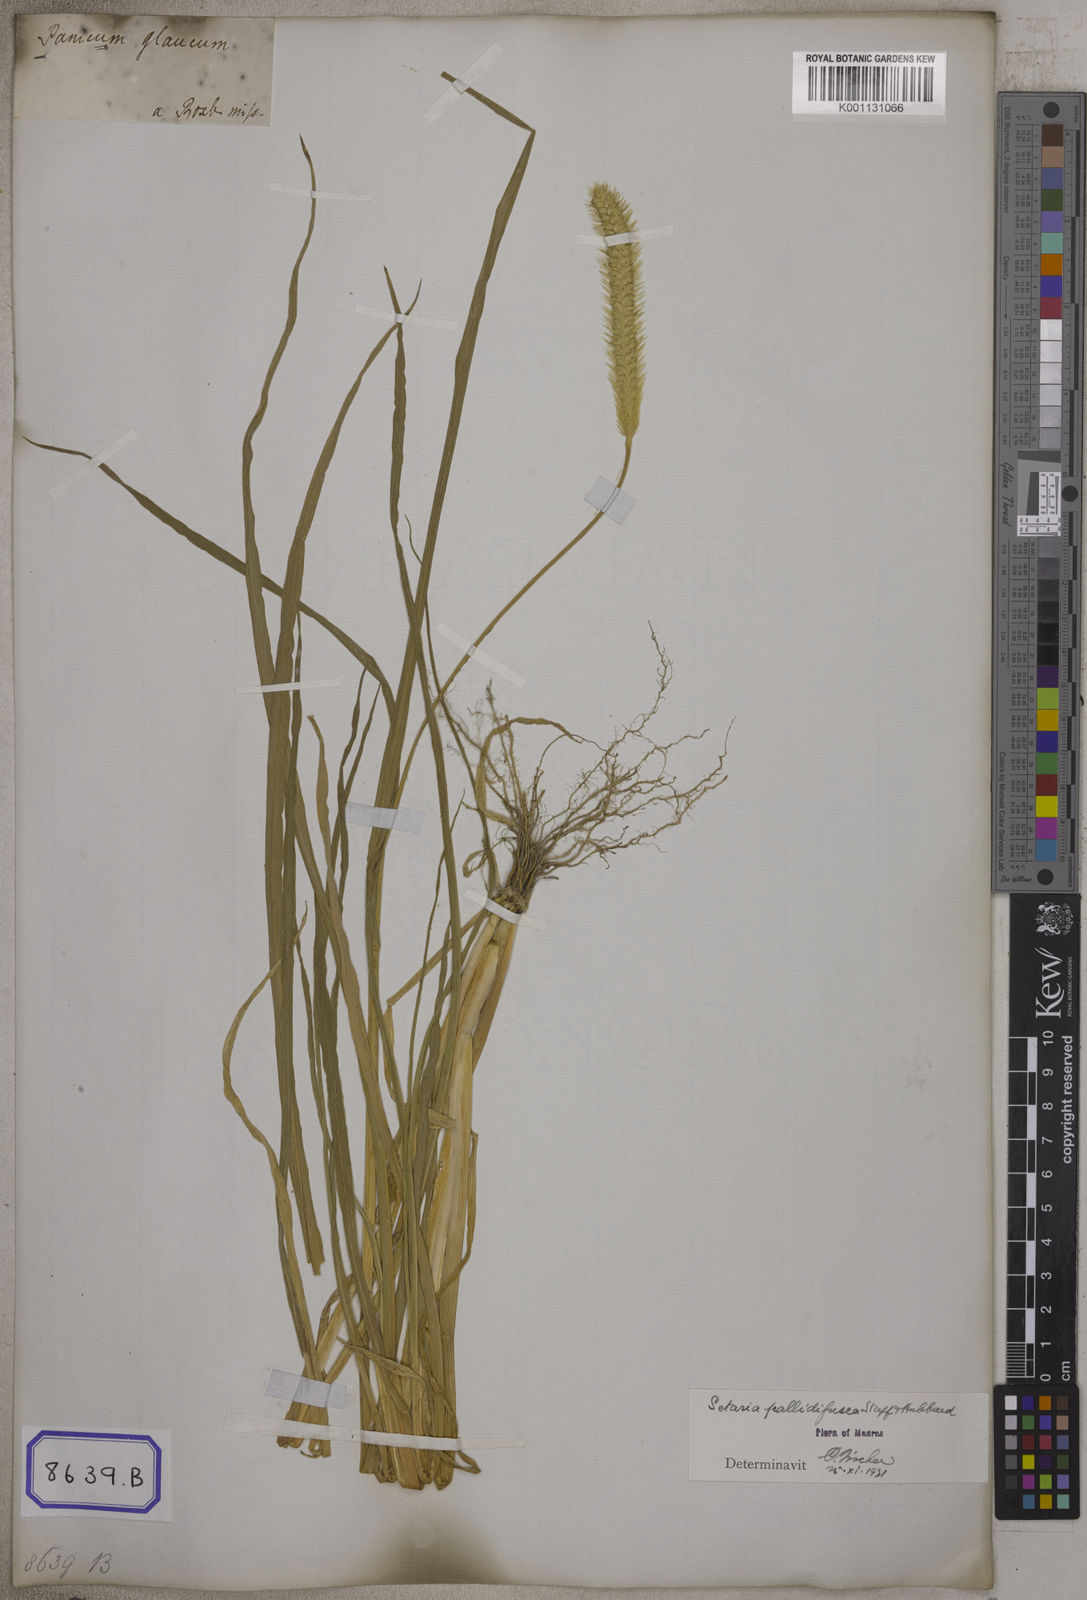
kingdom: Plantae
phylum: Tracheophyta
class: Liliopsida
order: Poales
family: Poaceae
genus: Cenchrus
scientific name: Cenchrus americanus
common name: Pearl millet
